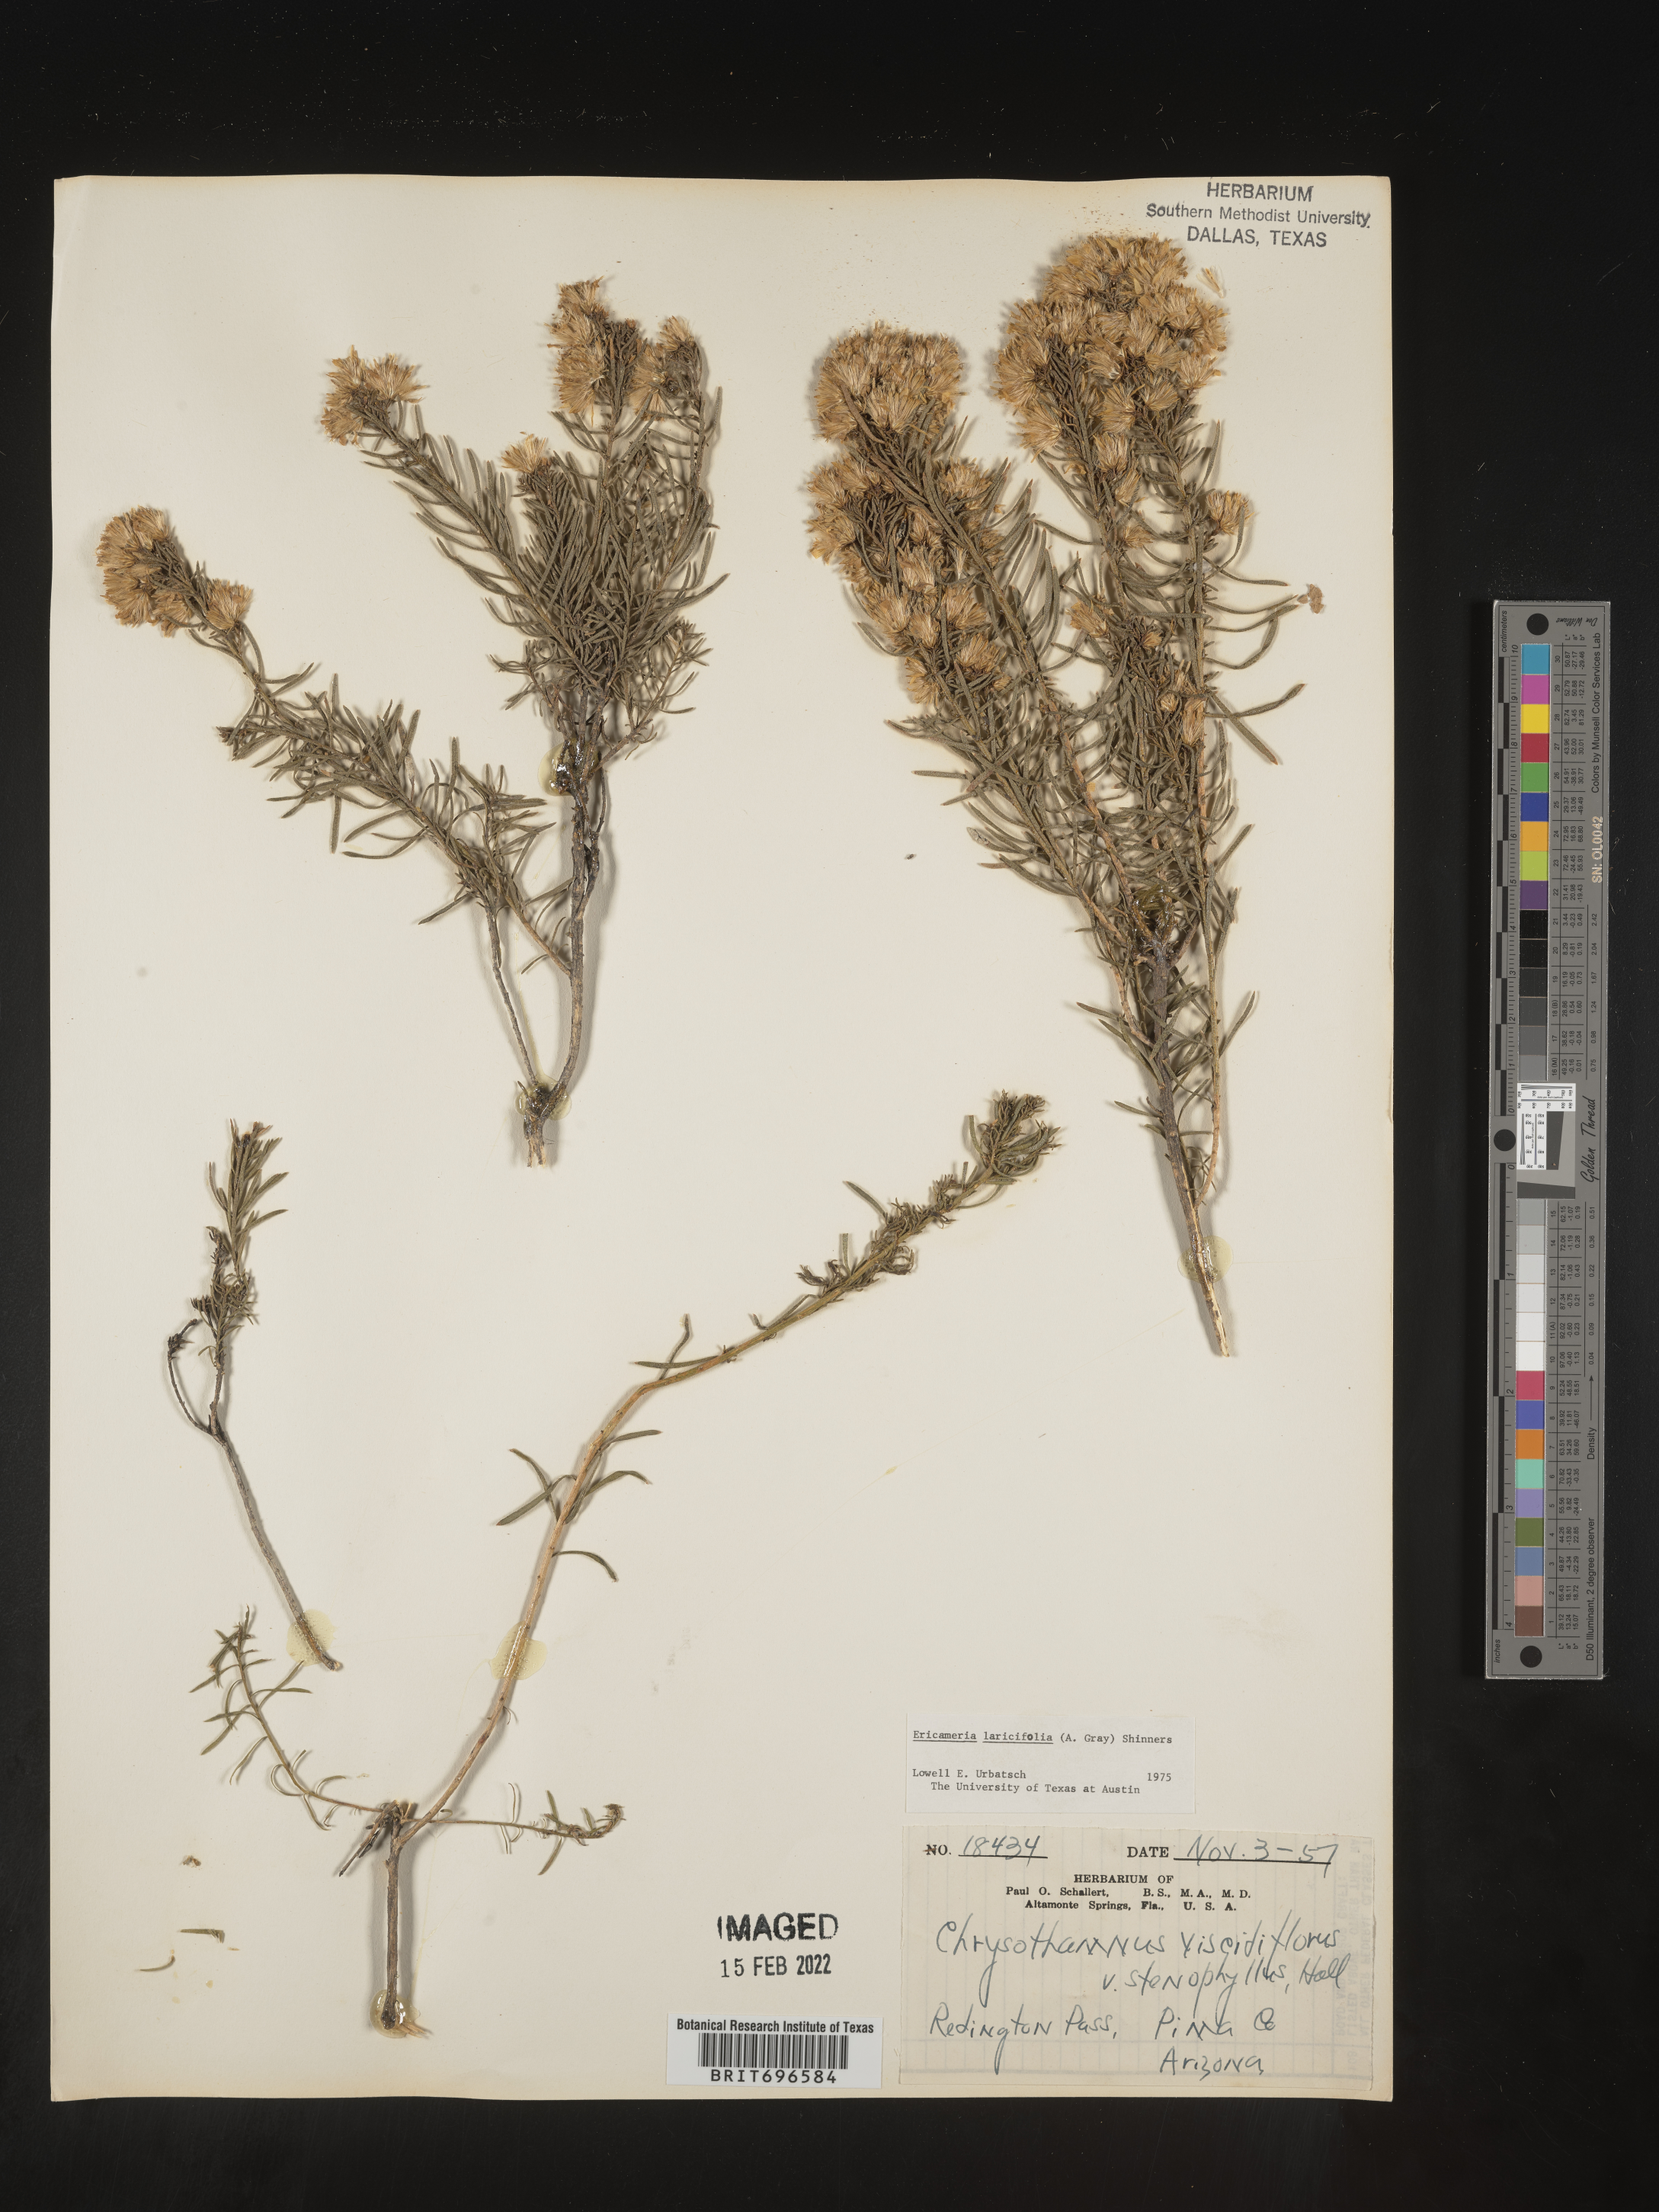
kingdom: Plantae
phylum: Tracheophyta
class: Magnoliopsida
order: Asterales
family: Asteraceae
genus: Ericameria
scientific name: Ericameria laricifolia
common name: Turpentine-bush
